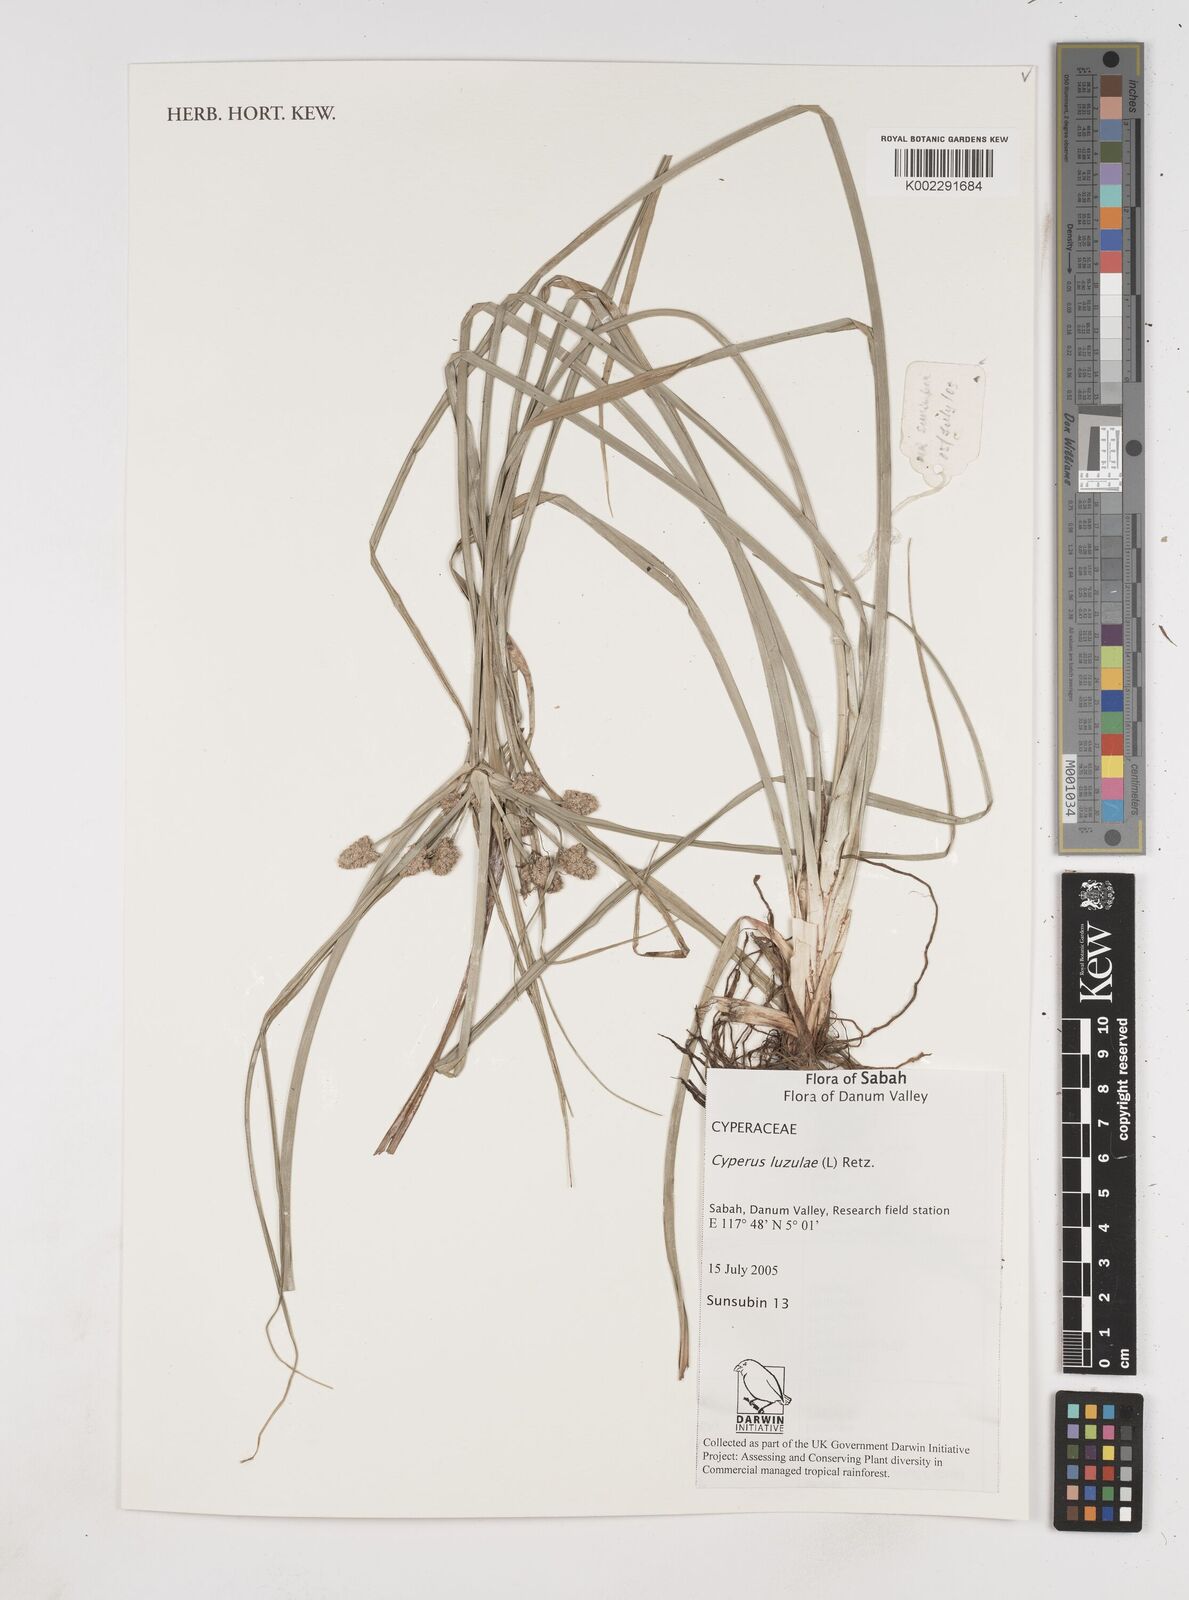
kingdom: Plantae
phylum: Tracheophyta
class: Liliopsida
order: Poales
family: Cyperaceae
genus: Cyperus
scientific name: Cyperus luzulae
